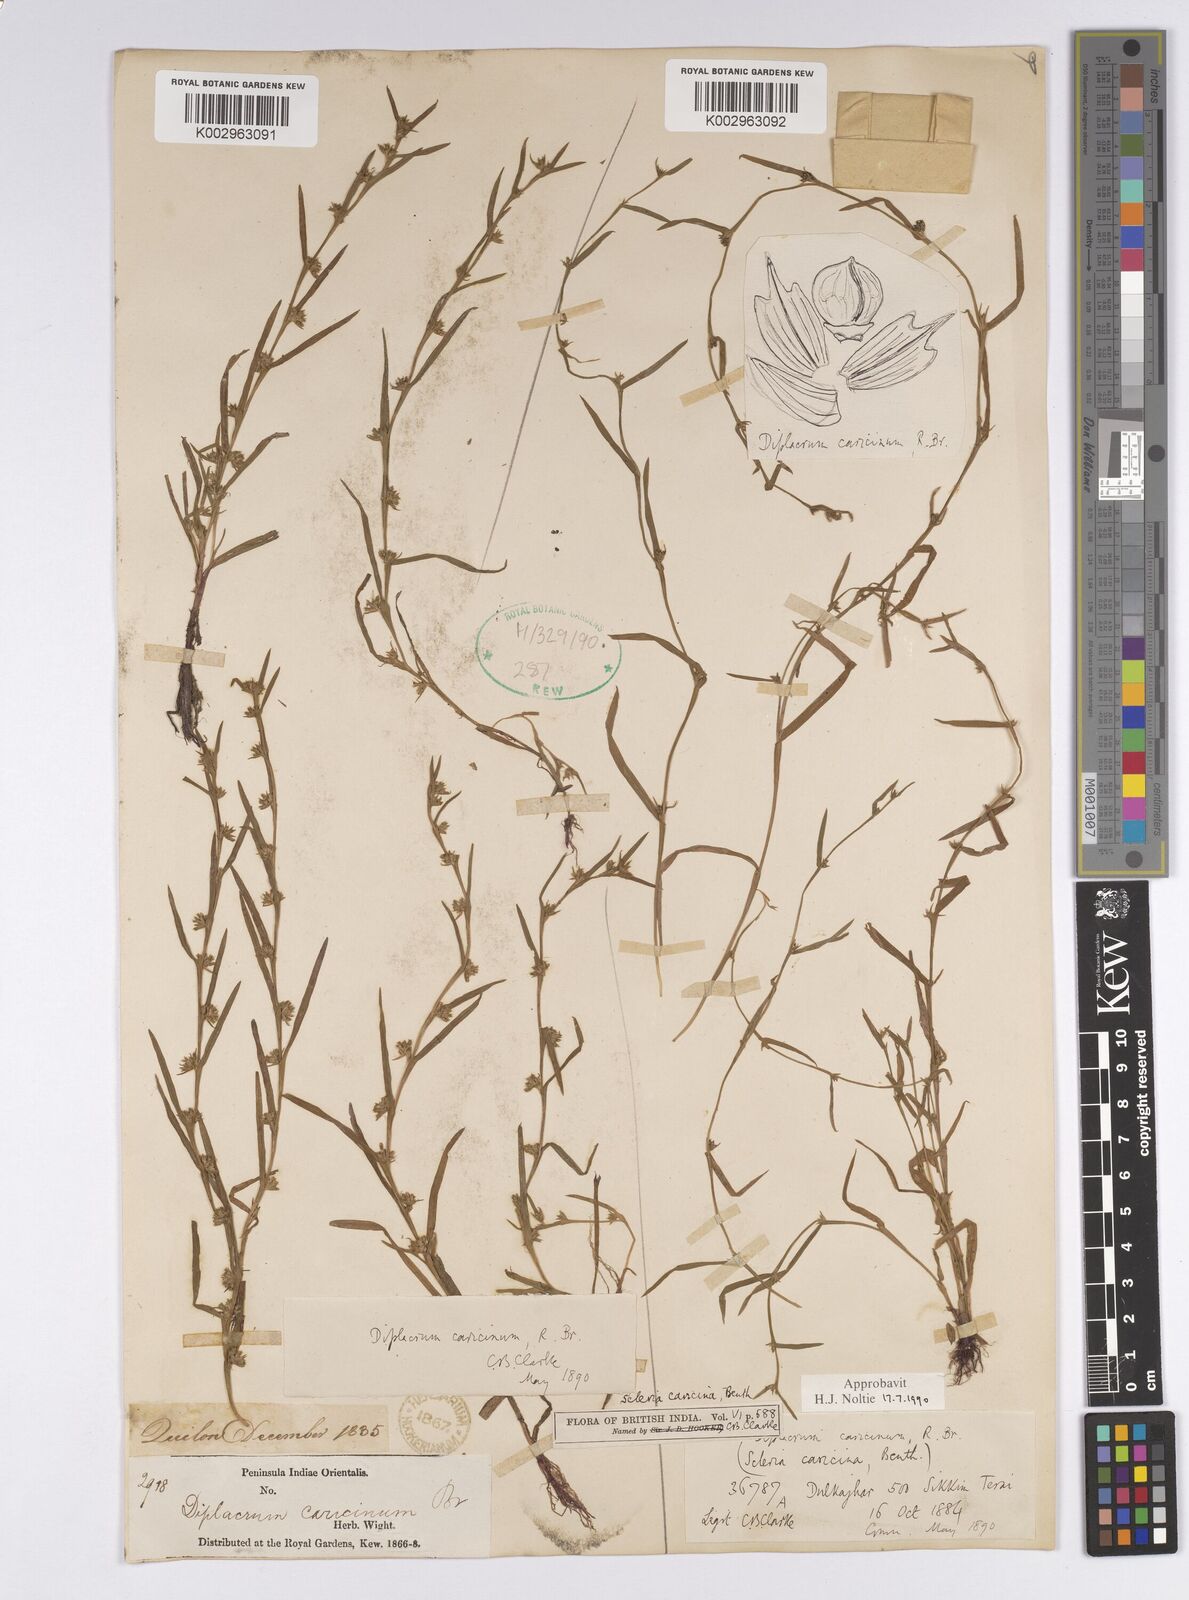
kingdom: Plantae
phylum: Tracheophyta
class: Liliopsida
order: Poales
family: Cyperaceae
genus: Diplacrum
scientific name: Diplacrum caricinum
